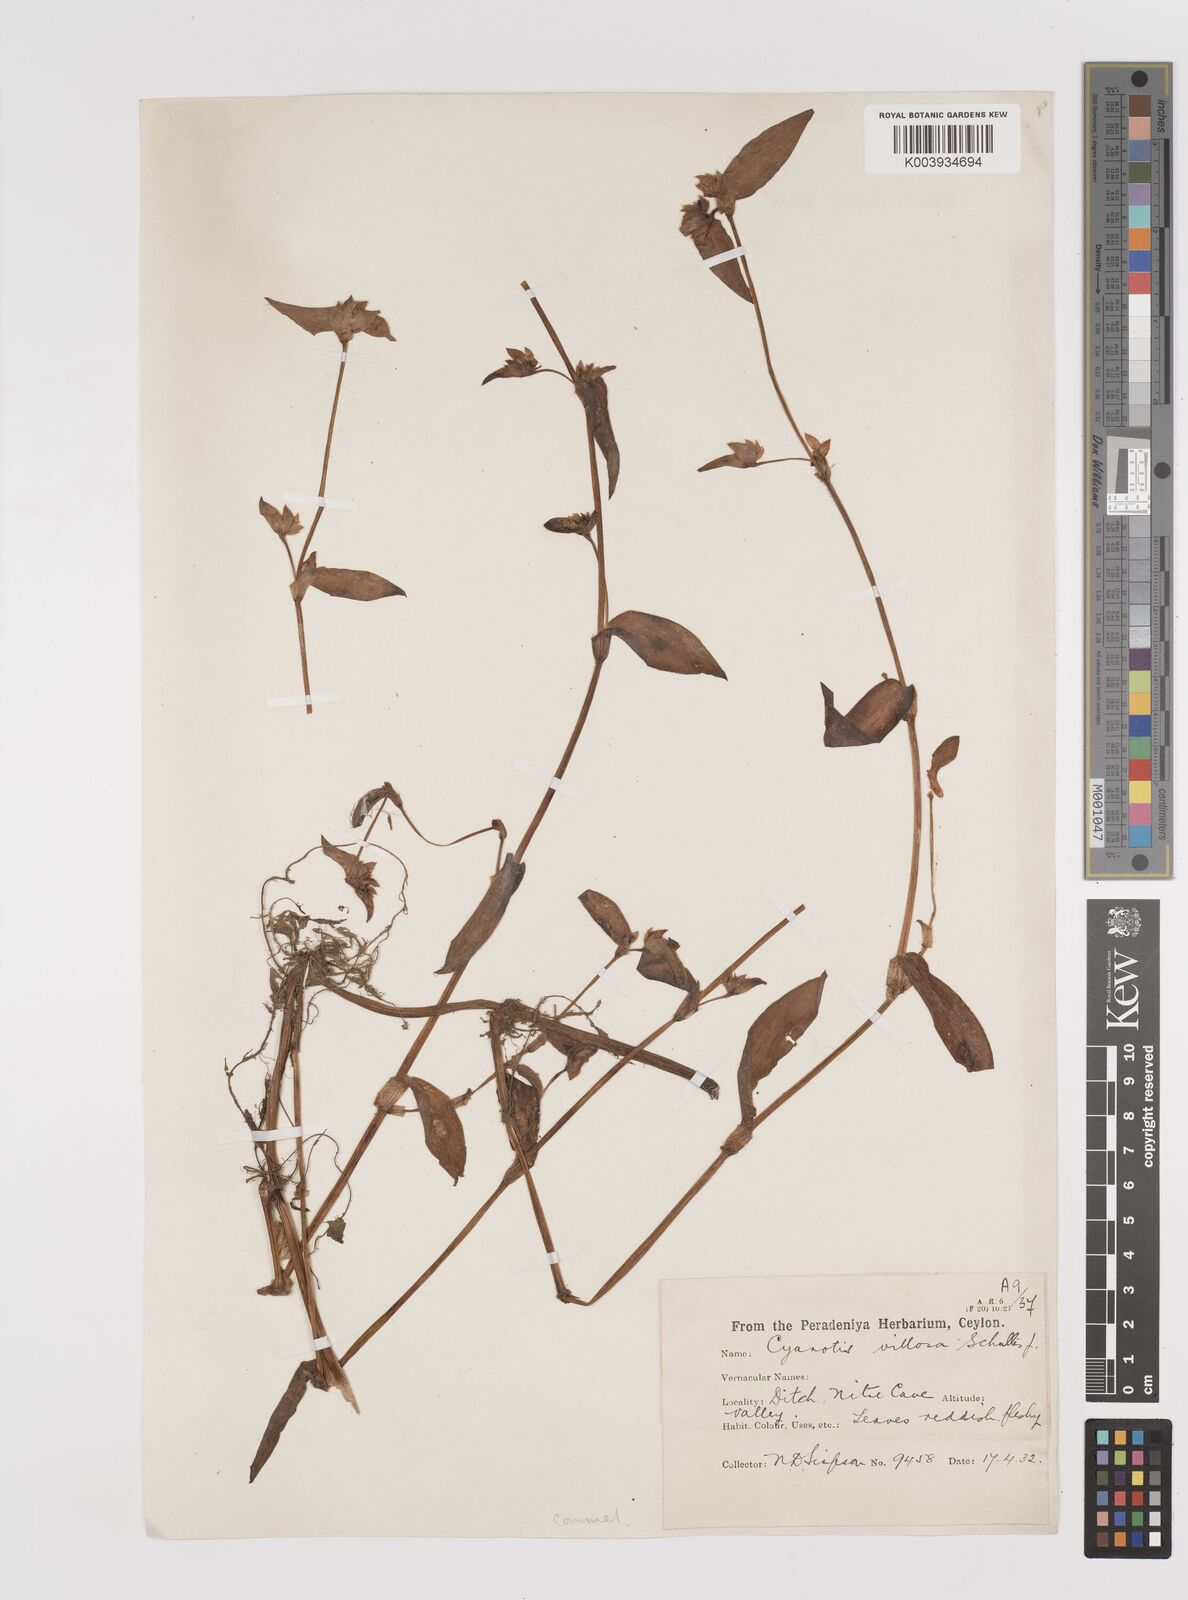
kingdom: Plantae
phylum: Tracheophyta
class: Liliopsida
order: Commelinales
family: Commelinaceae
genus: Cyanotis
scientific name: Cyanotis villosa
